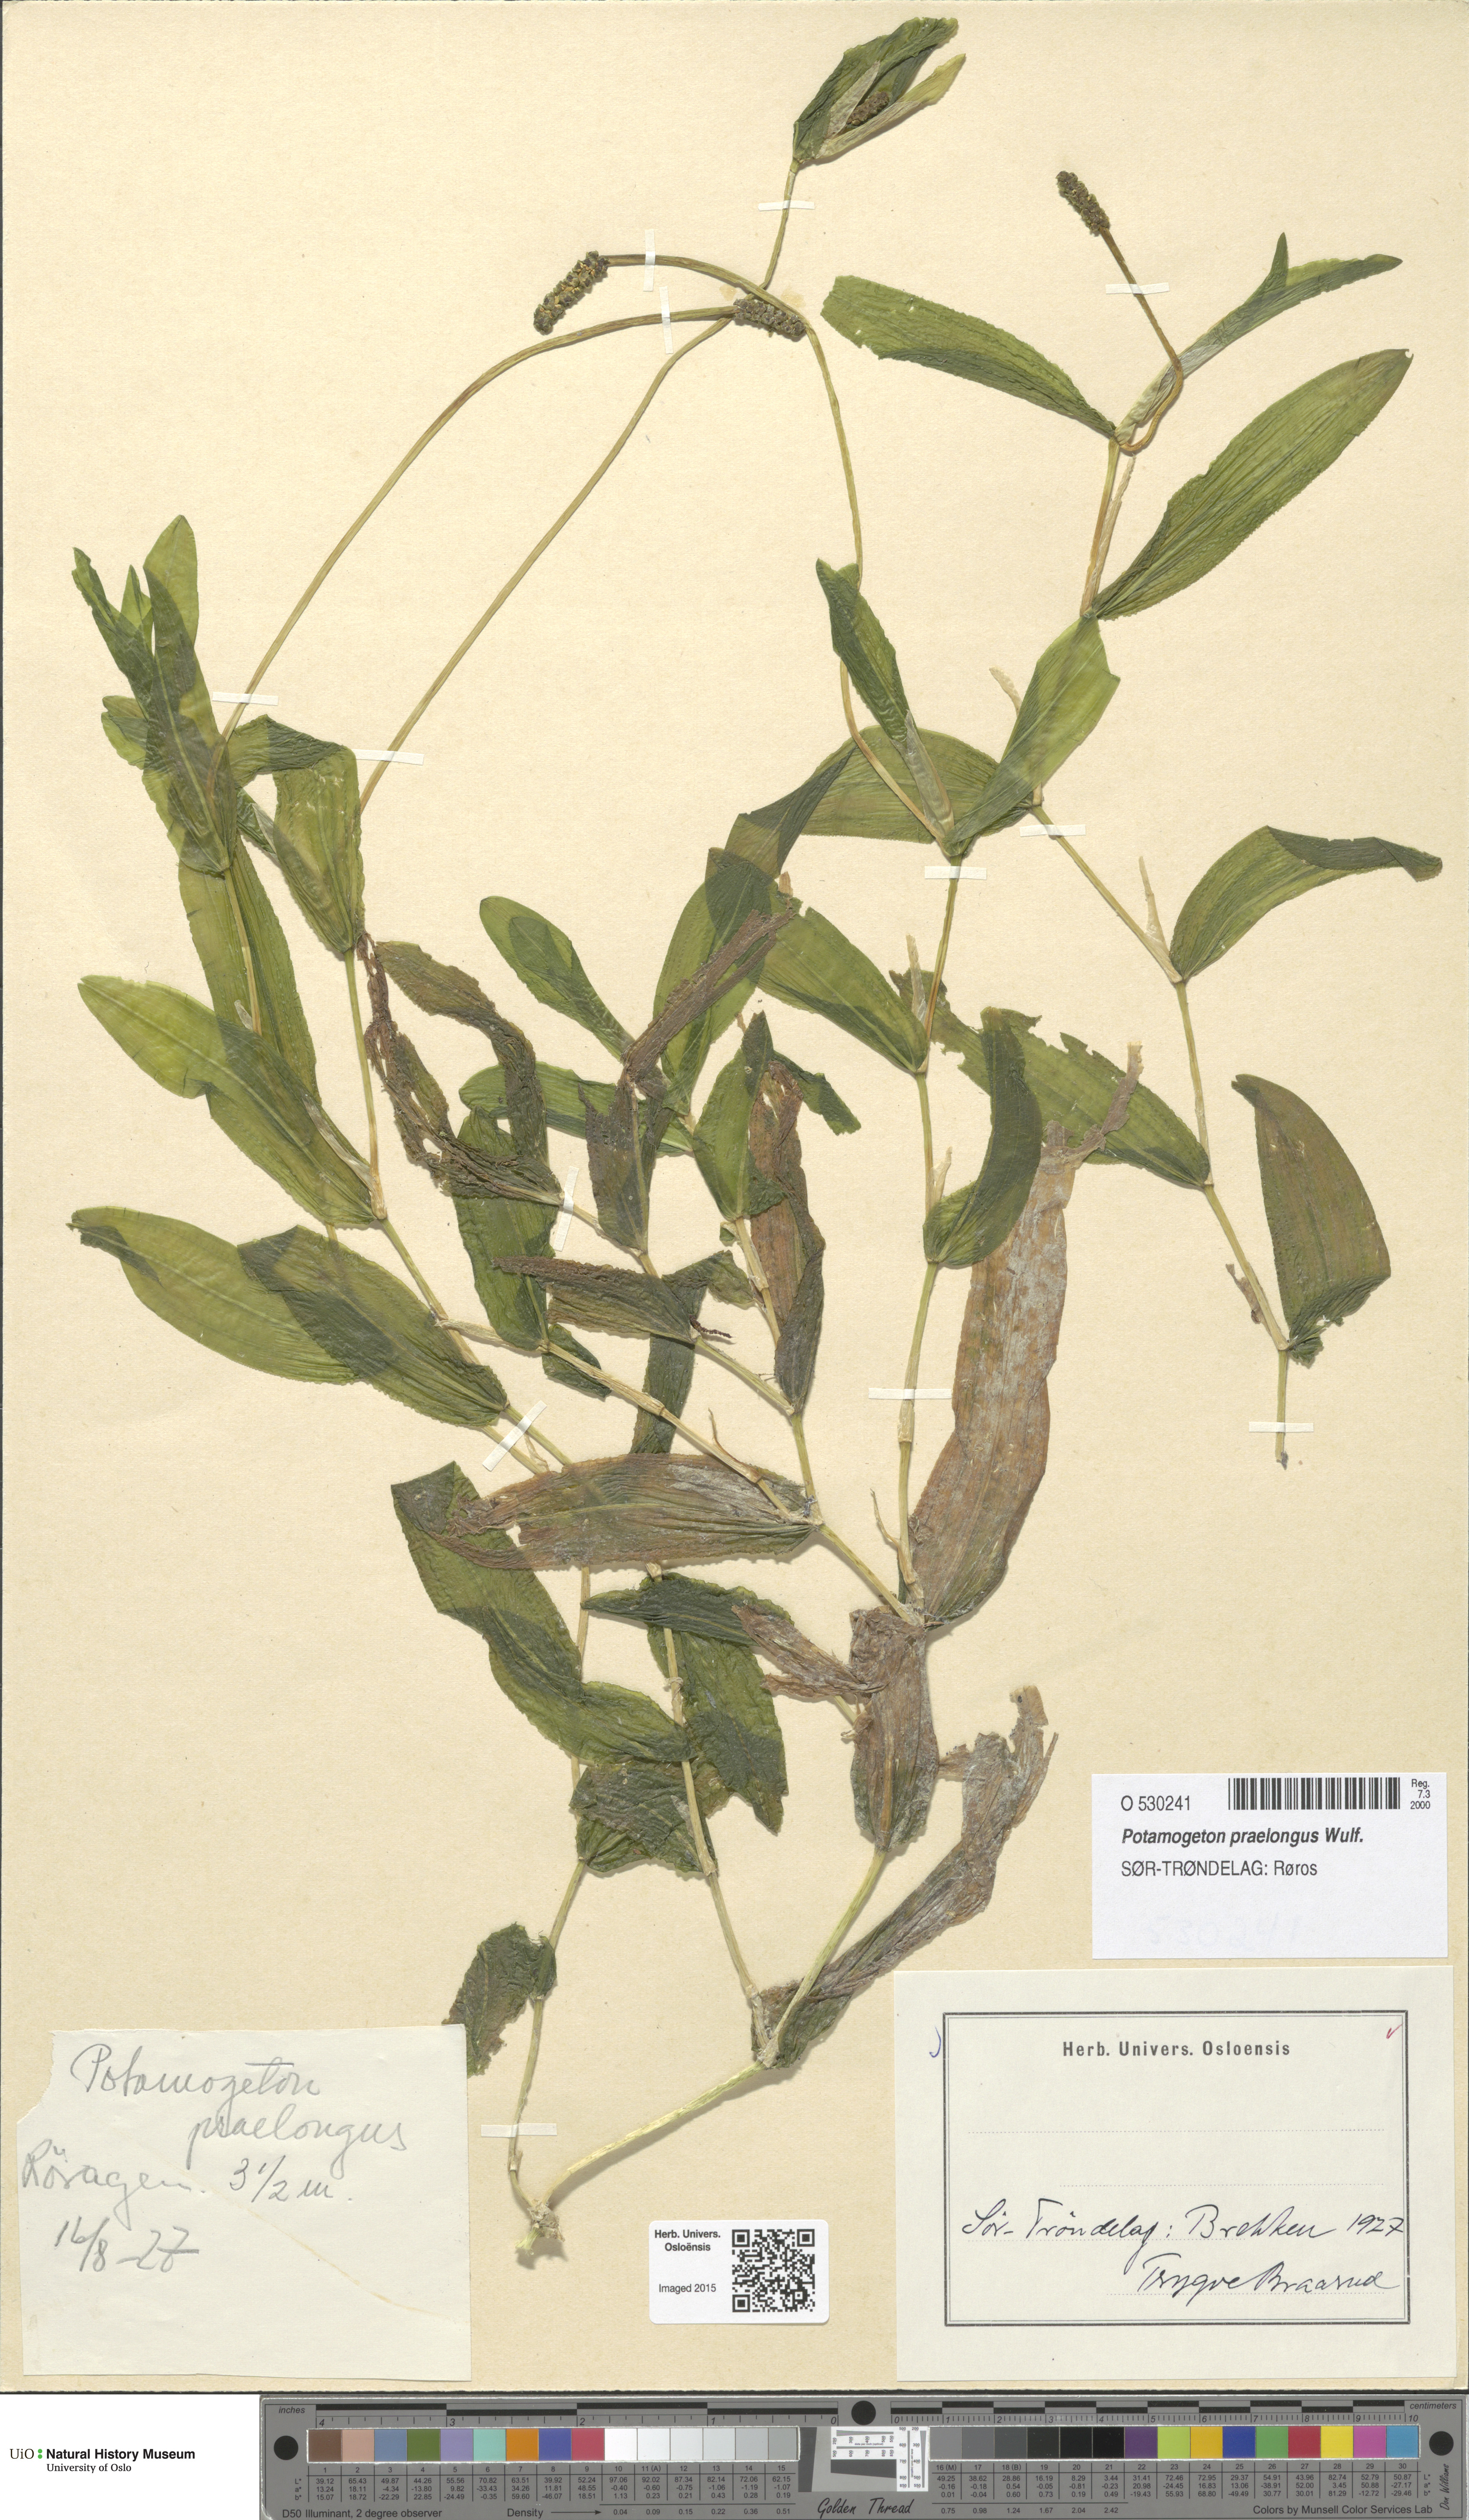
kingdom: Plantae
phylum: Tracheophyta
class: Liliopsida
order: Alismatales
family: Potamogetonaceae
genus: Potamogeton
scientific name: Potamogeton praelongus
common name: Long-stalked pondweed
